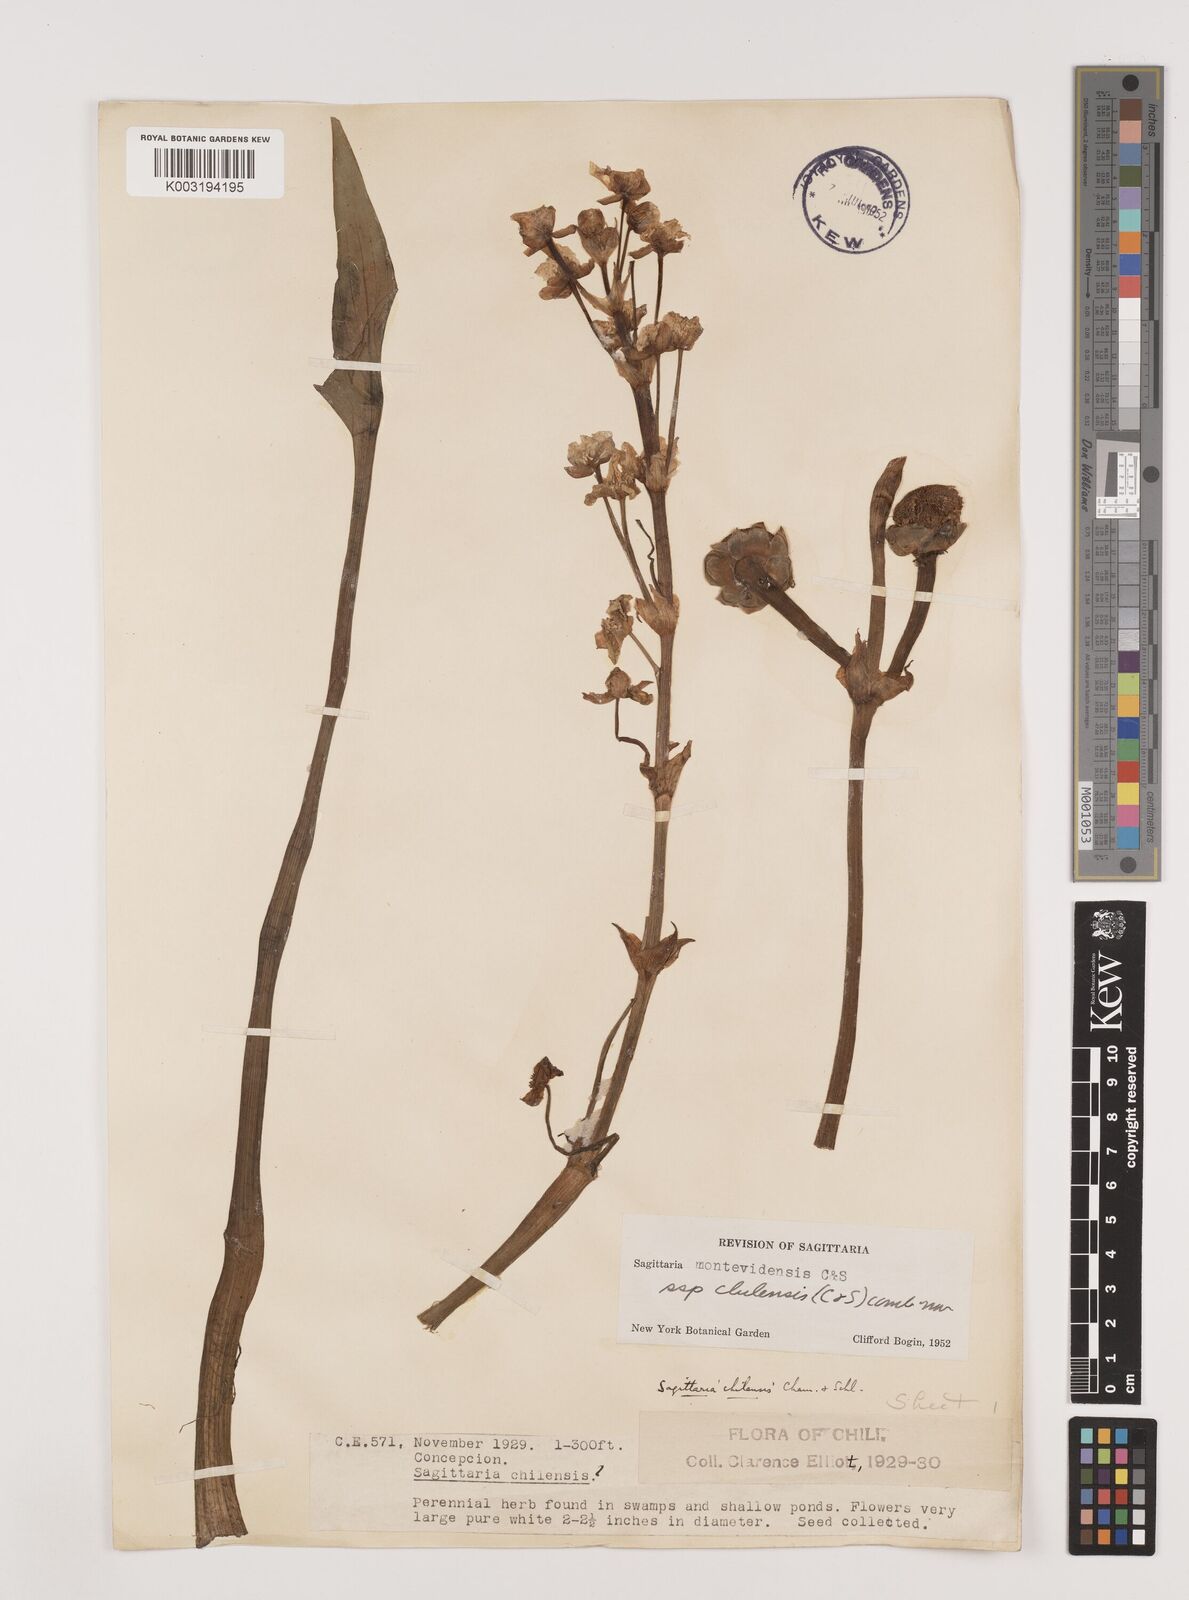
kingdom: Plantae
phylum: Tracheophyta
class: Liliopsida
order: Alismatales
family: Alismataceae
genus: Sagittaria
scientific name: Sagittaria montevidensis
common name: Giant arrowhead
